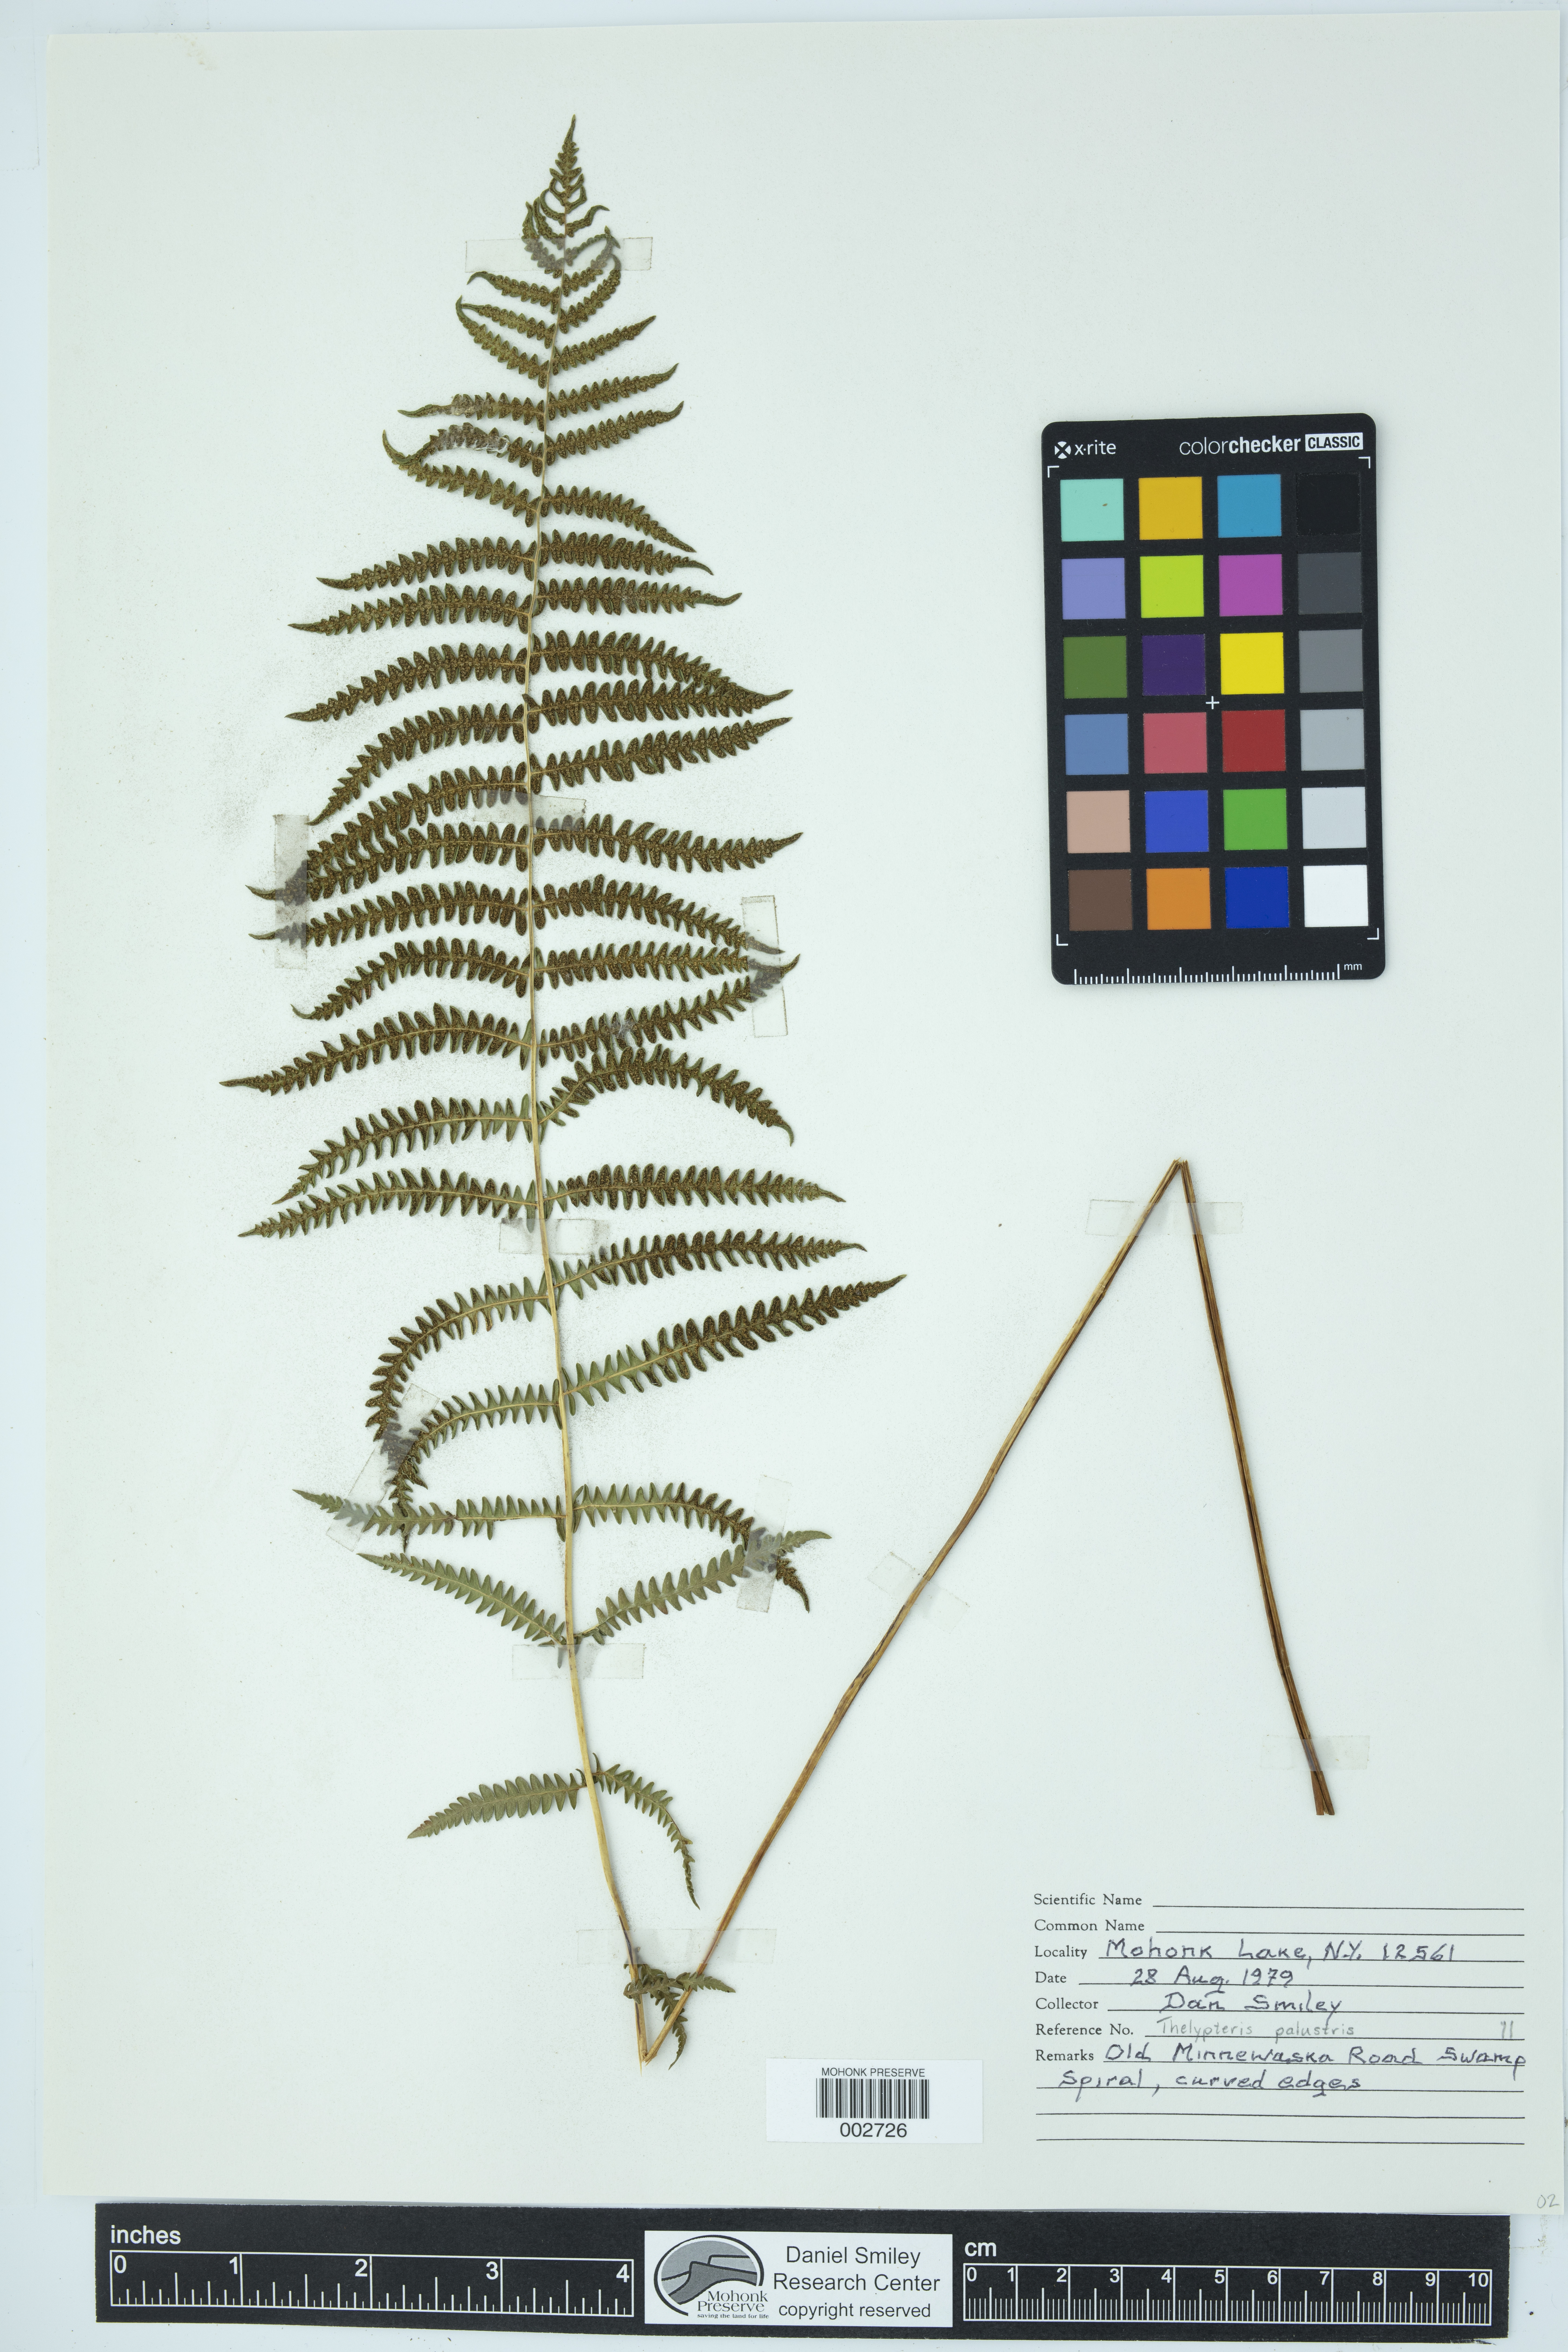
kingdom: Plantae
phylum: Tracheophyta
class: Polypodiopsida
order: Polypodiales
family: Thelypteridaceae
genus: Thelypteris
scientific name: Thelypteris confluens
